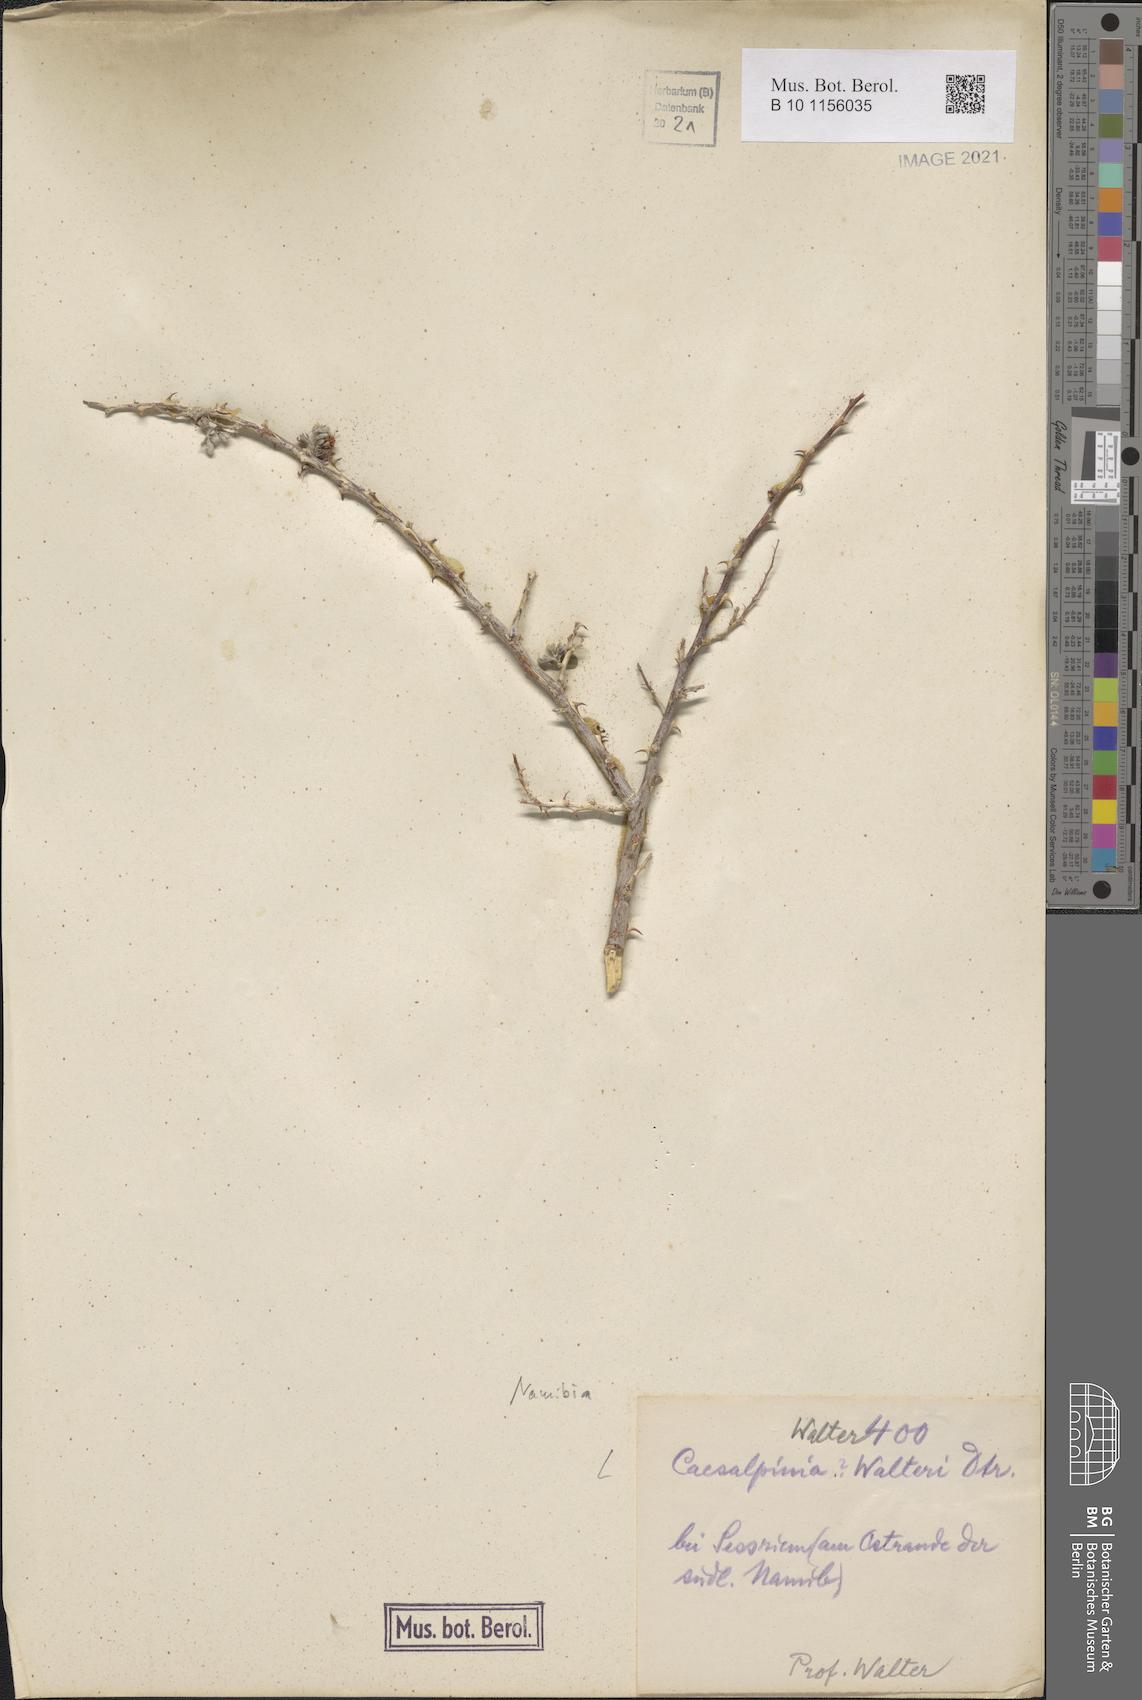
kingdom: Plantae
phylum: Tracheophyta
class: Magnoliopsida
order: Fabales
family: Fabaceae
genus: Caesalpinia
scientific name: Caesalpinia
